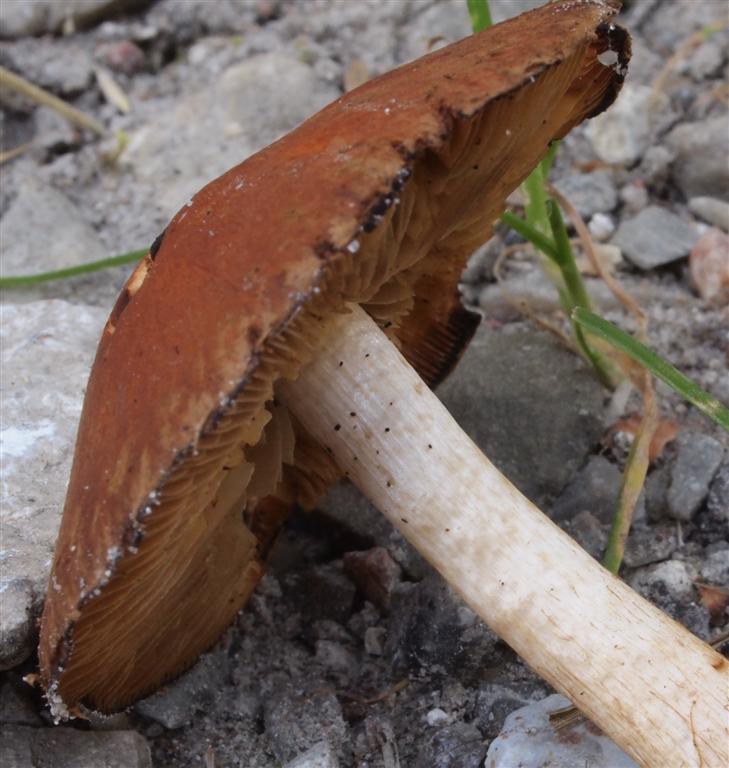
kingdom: Fungi
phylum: Basidiomycota
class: Agaricomycetes
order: Agaricales
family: Psathyrellaceae
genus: Psathyrella
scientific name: Psathyrella pertinax
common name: gran-mørkhat
